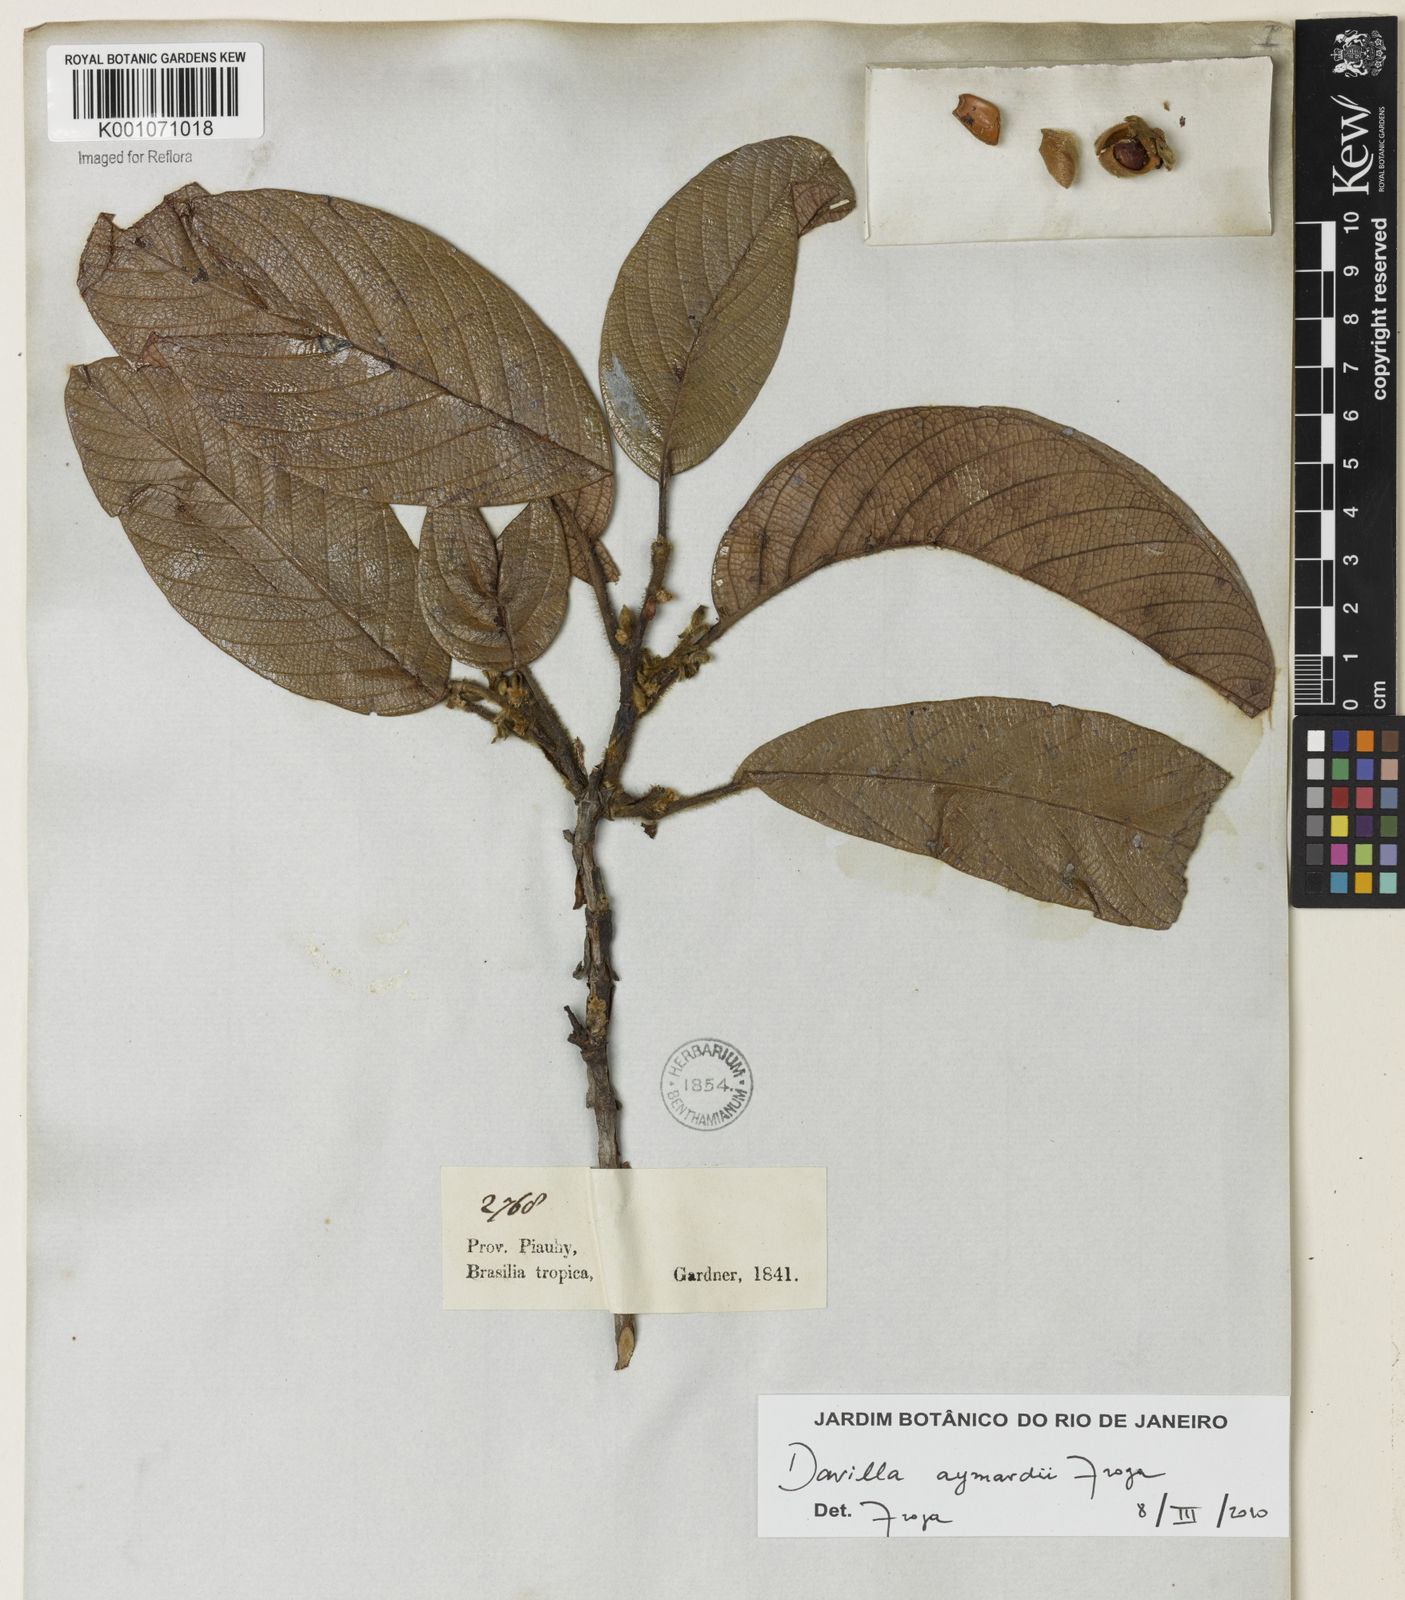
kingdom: Plantae
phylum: Tracheophyta
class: Magnoliopsida
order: Dilleniales
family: Dilleniaceae
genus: Davilla
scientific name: Davilla aymardii
